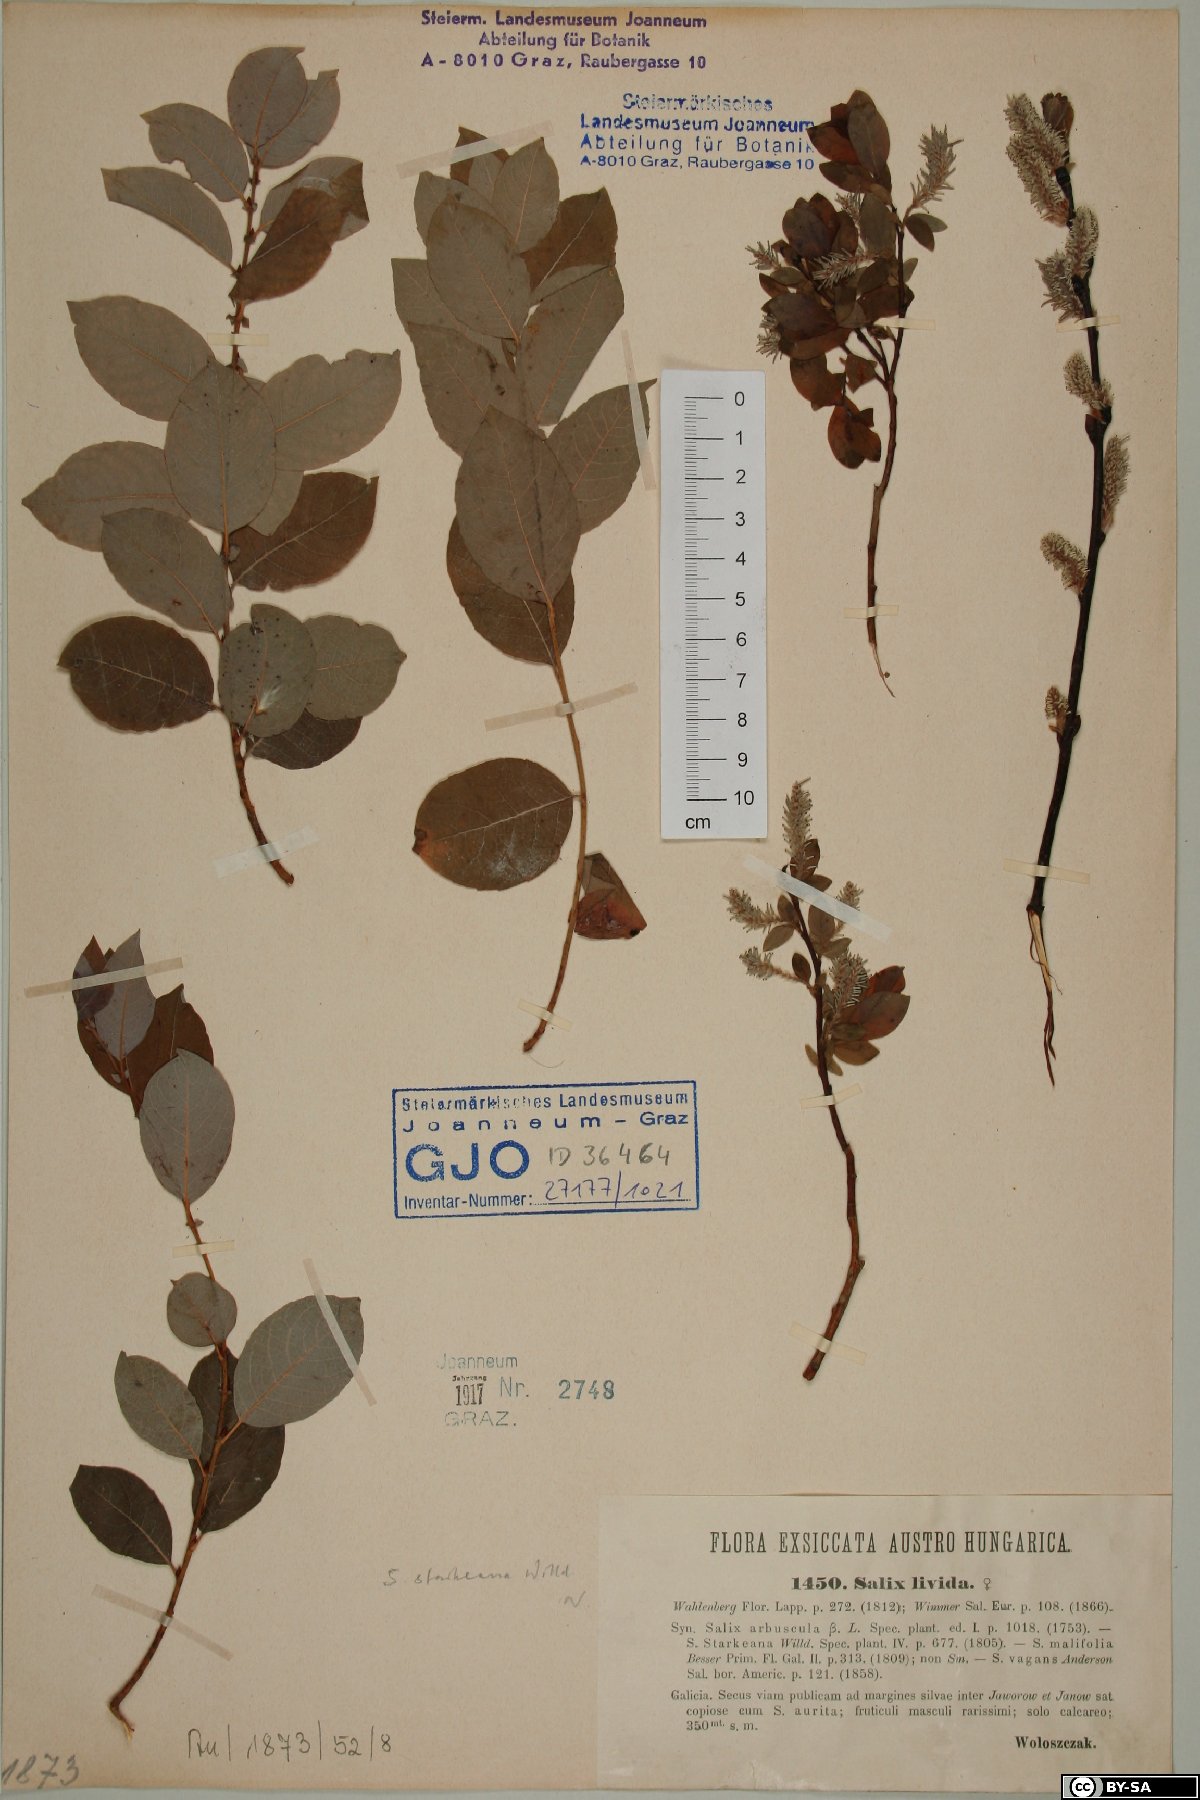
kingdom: Plantae
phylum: Tracheophyta
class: Magnoliopsida
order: Malpighiales
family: Salicaceae
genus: Salix
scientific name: Salix starkeana
